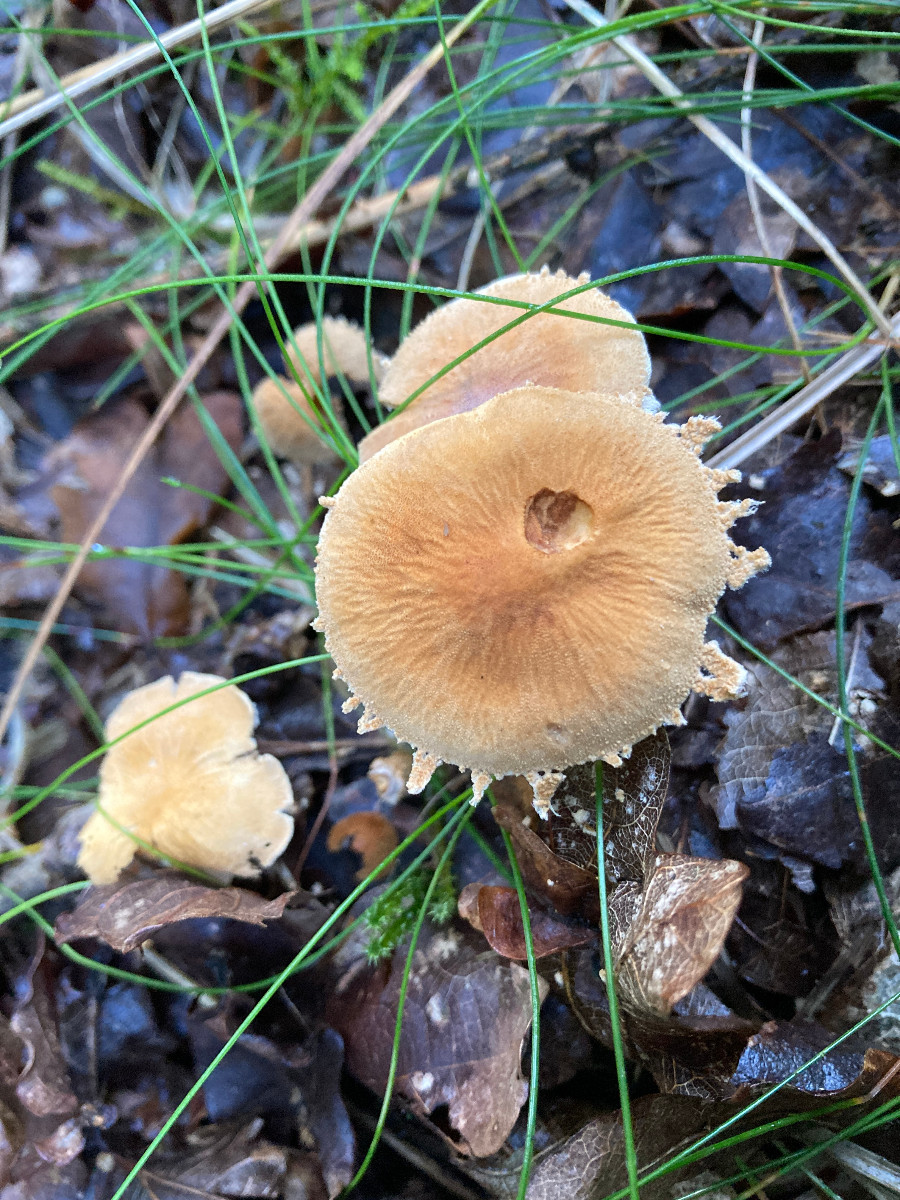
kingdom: Fungi
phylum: Basidiomycota
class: Agaricomycetes
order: Agaricales
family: Tricholomataceae
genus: Cystoderma
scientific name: Cystoderma amianthinum
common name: okkergul grynhat
